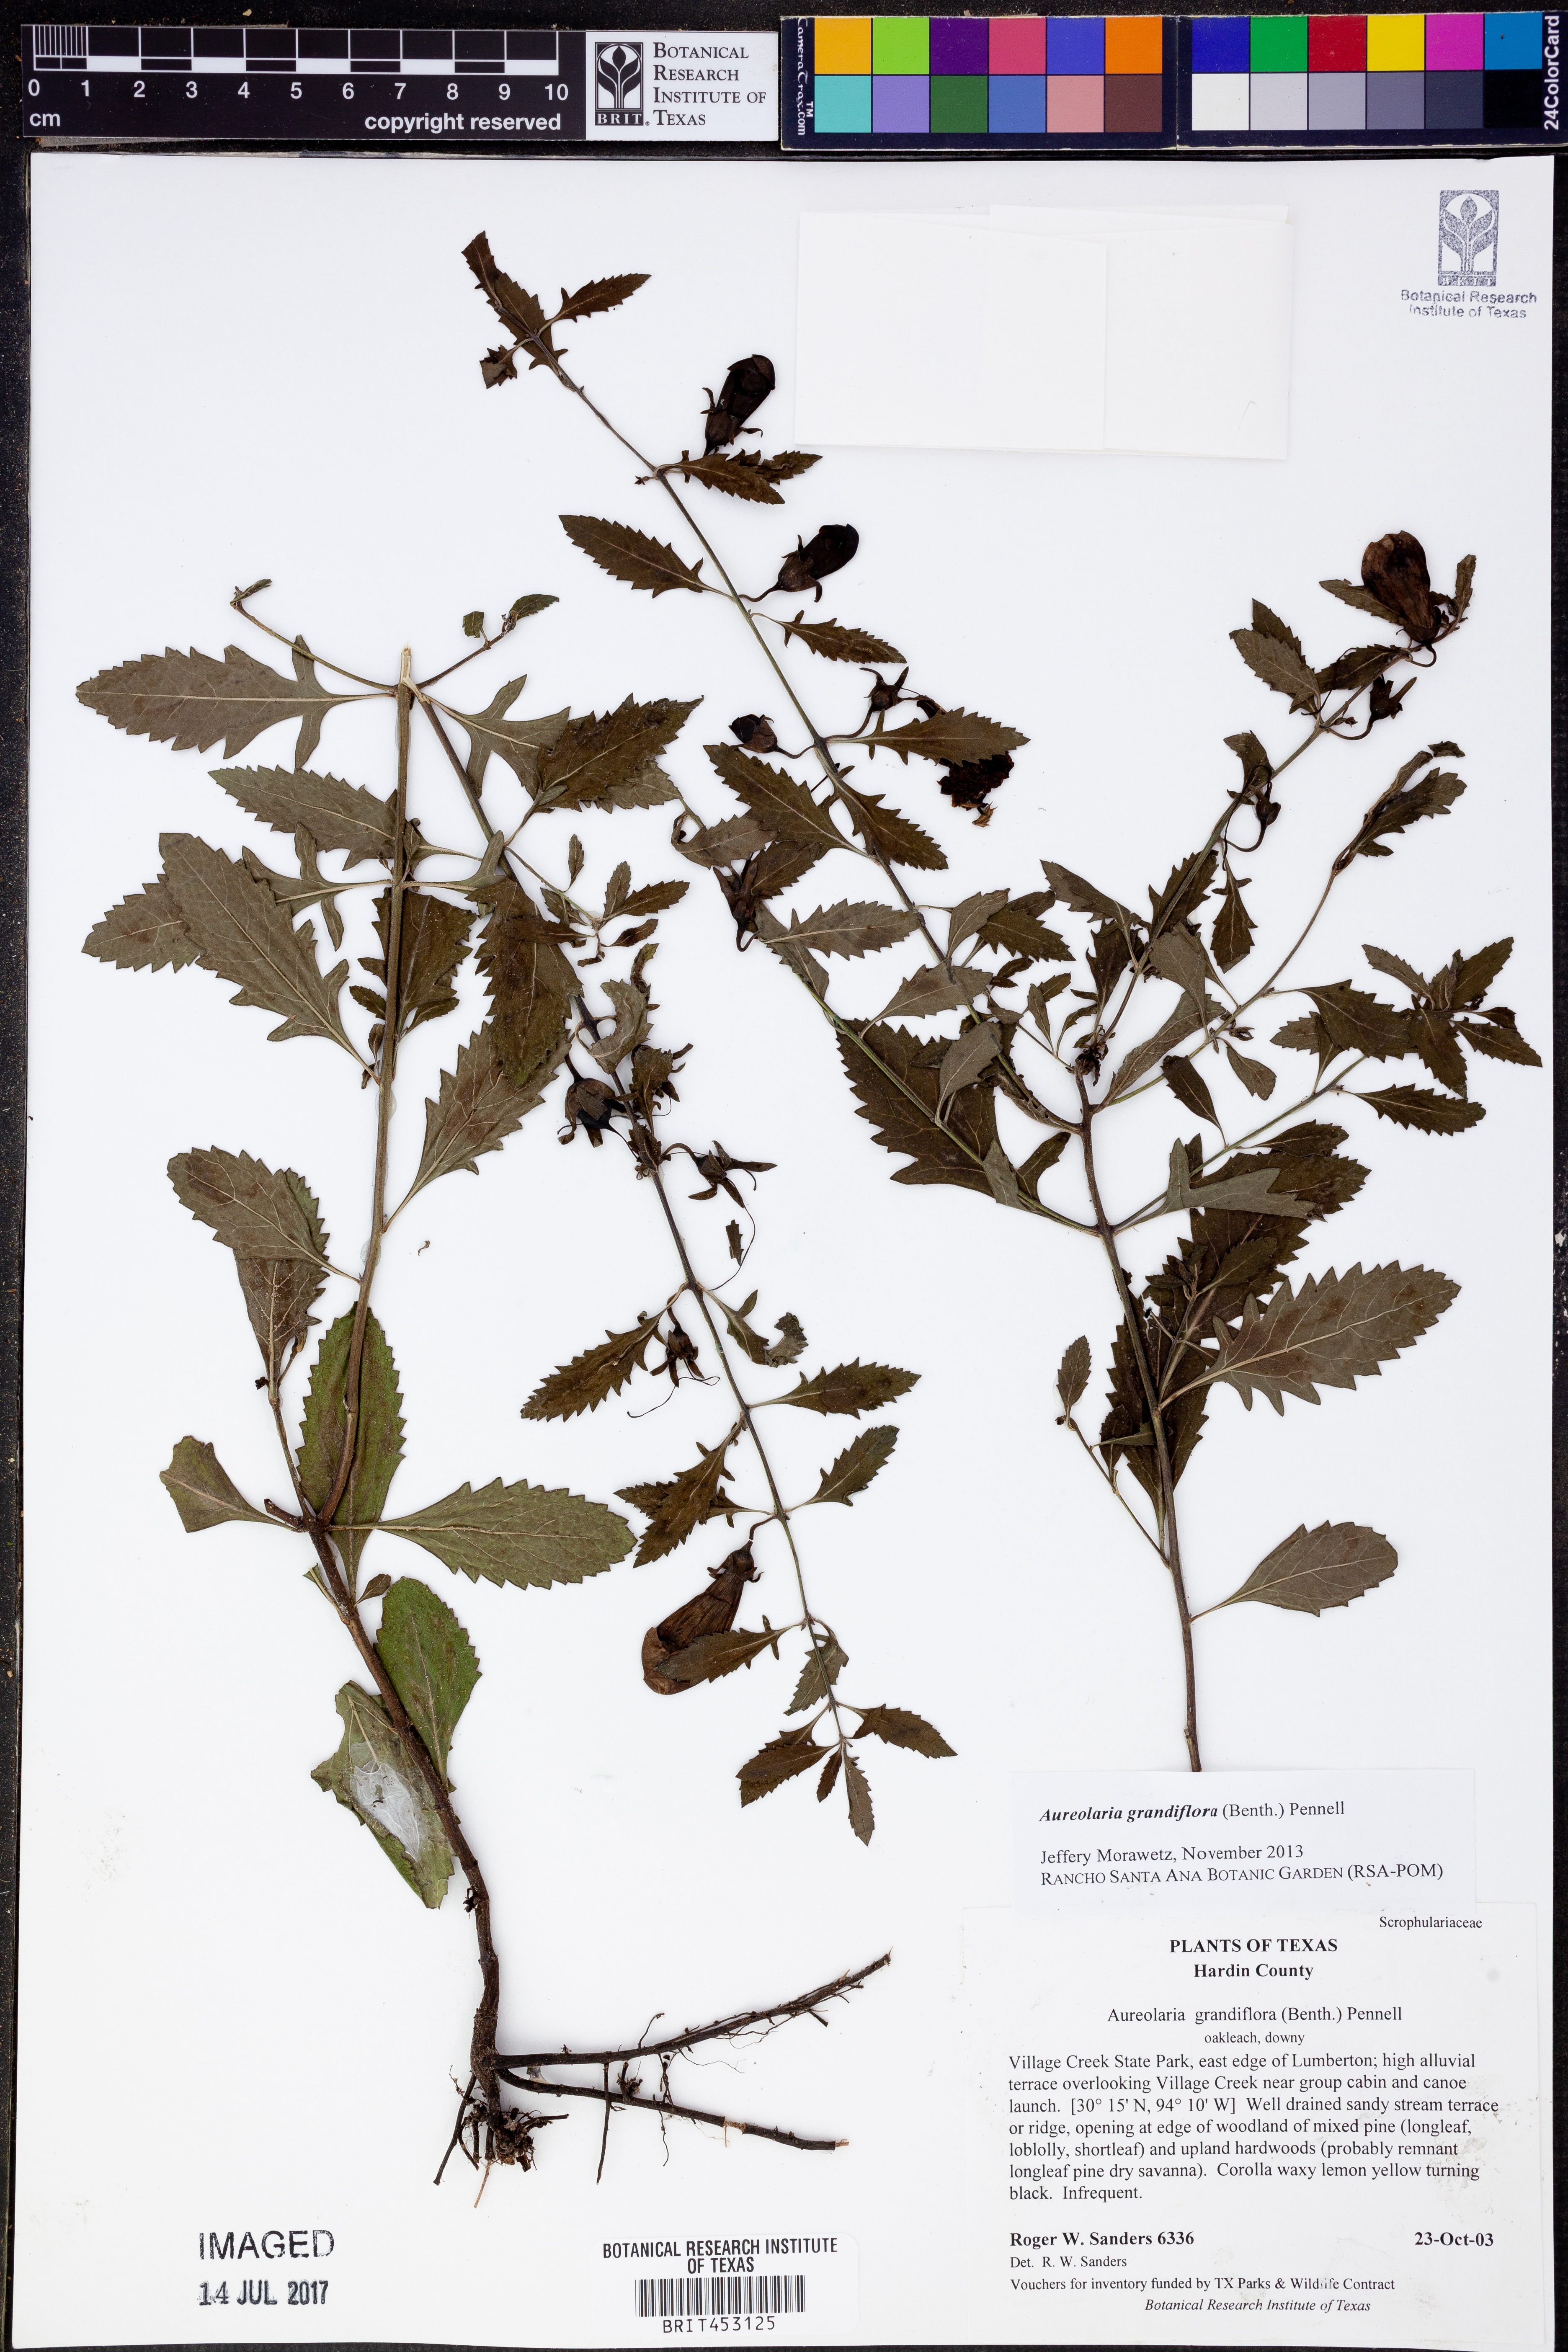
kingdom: Plantae
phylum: Tracheophyta
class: Magnoliopsida
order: Lamiales
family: Orobanchaceae
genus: Aureolaria
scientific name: Aureolaria grandiflora
